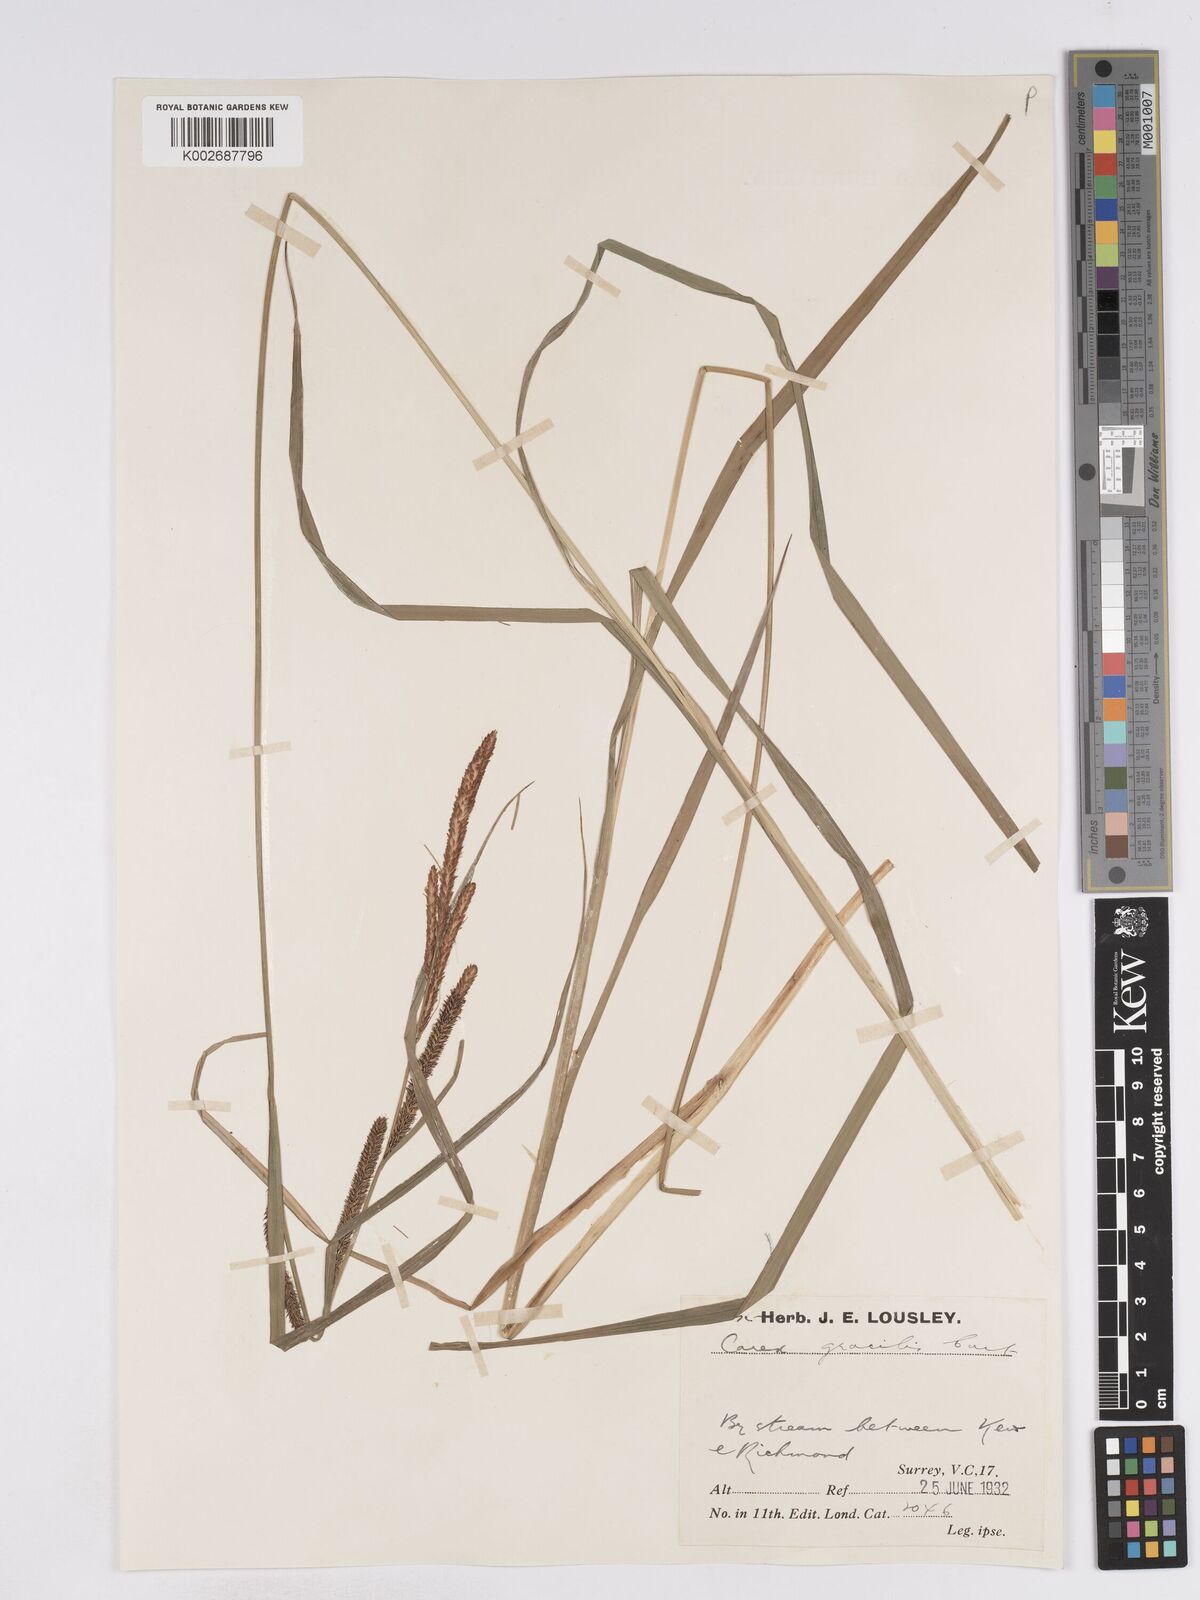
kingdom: Plantae
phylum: Tracheophyta
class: Liliopsida
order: Poales
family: Cyperaceae
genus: Carex
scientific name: Carex acuta
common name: Slender tufted-sedge
